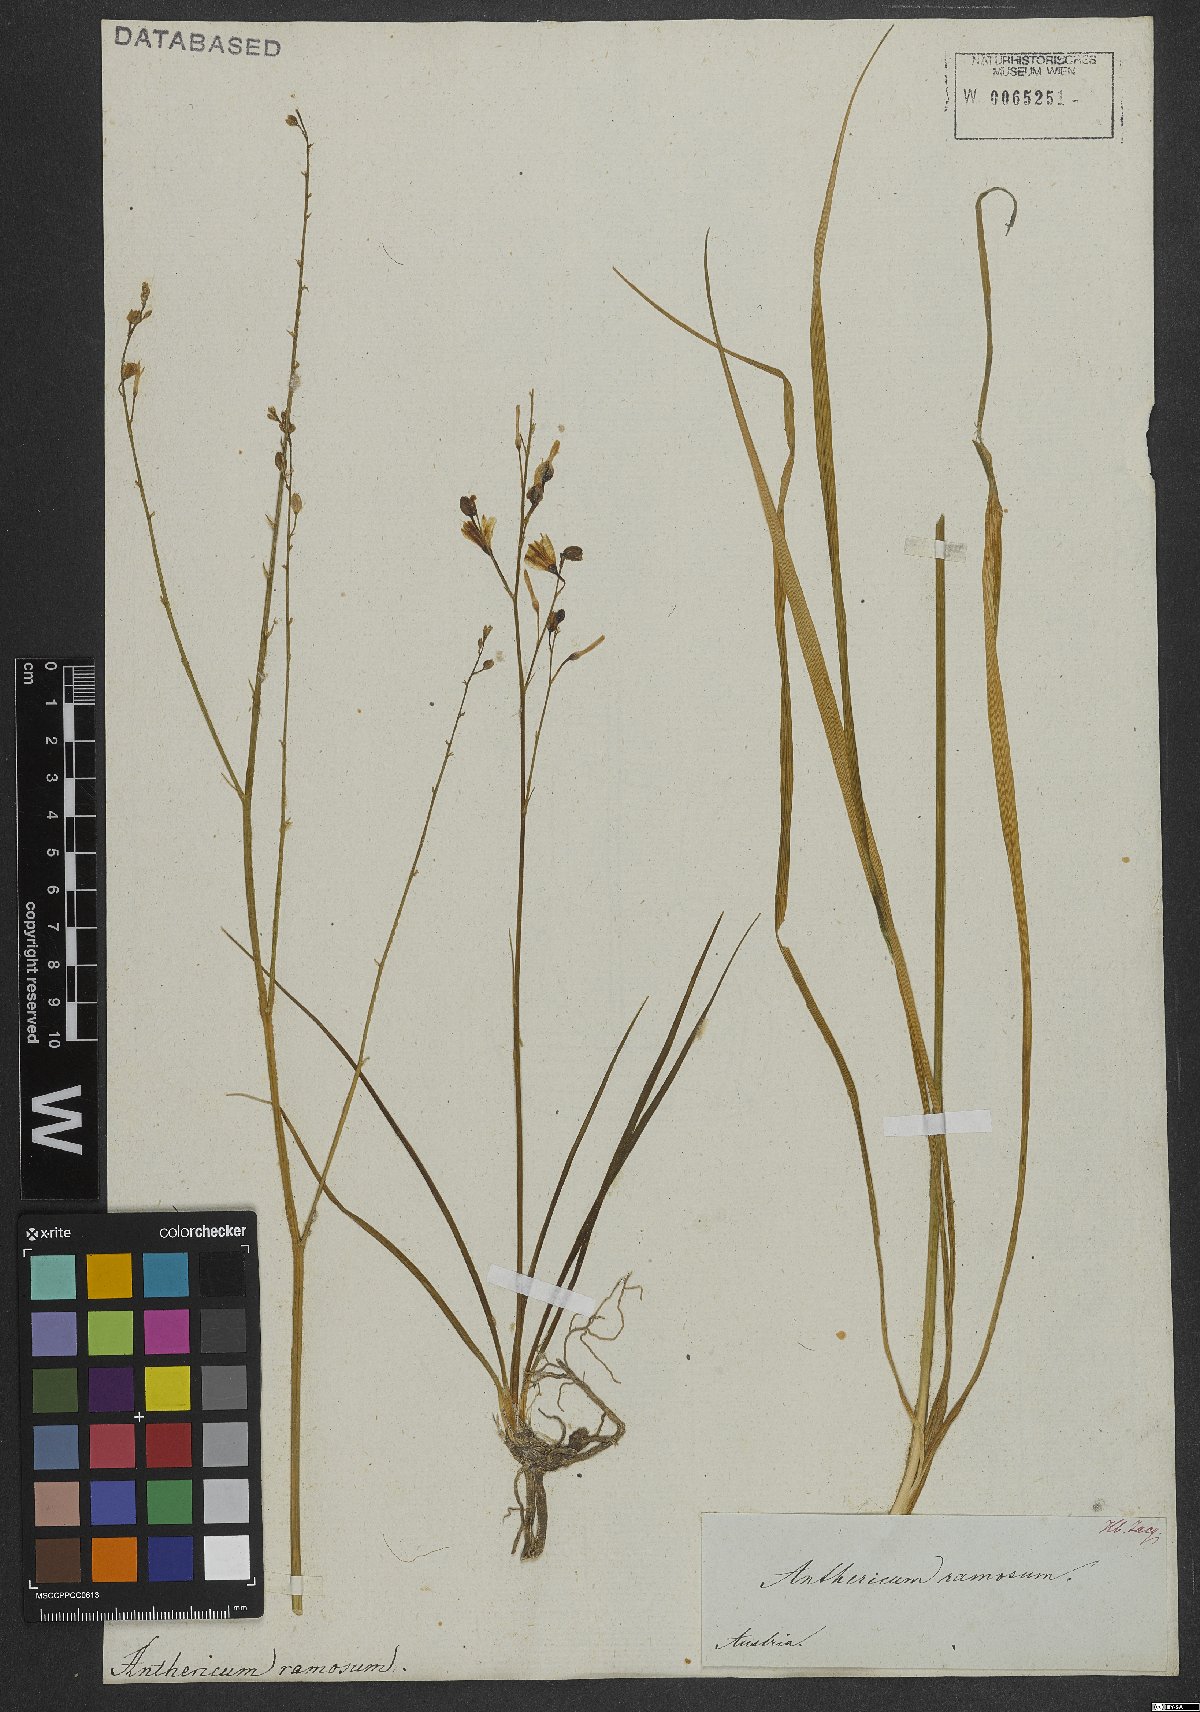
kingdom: Plantae
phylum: Tracheophyta
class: Liliopsida
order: Asparagales
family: Asparagaceae
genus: Anthericum
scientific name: Anthericum ramosum
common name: Branched st. bernard's-lily
